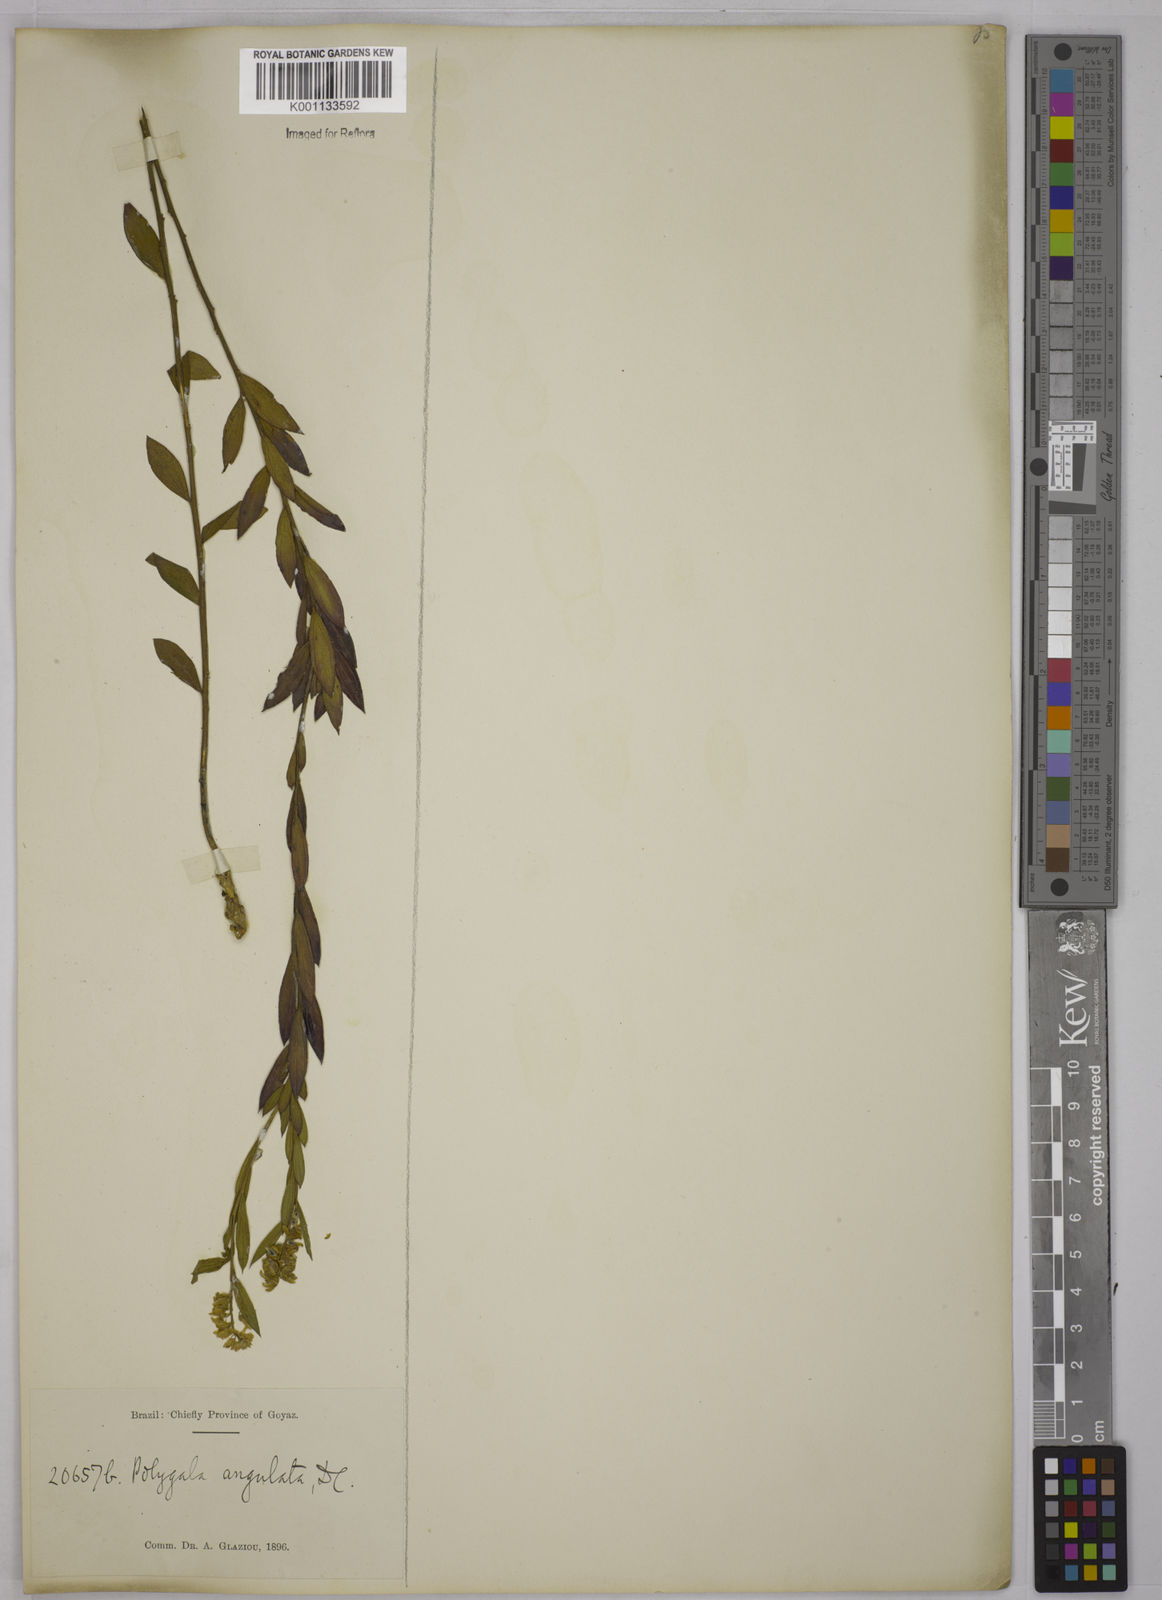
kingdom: Plantae
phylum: Tracheophyta
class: Magnoliopsida
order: Fabales
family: Polygalaceae
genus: Polygala
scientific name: Polygala poaya
